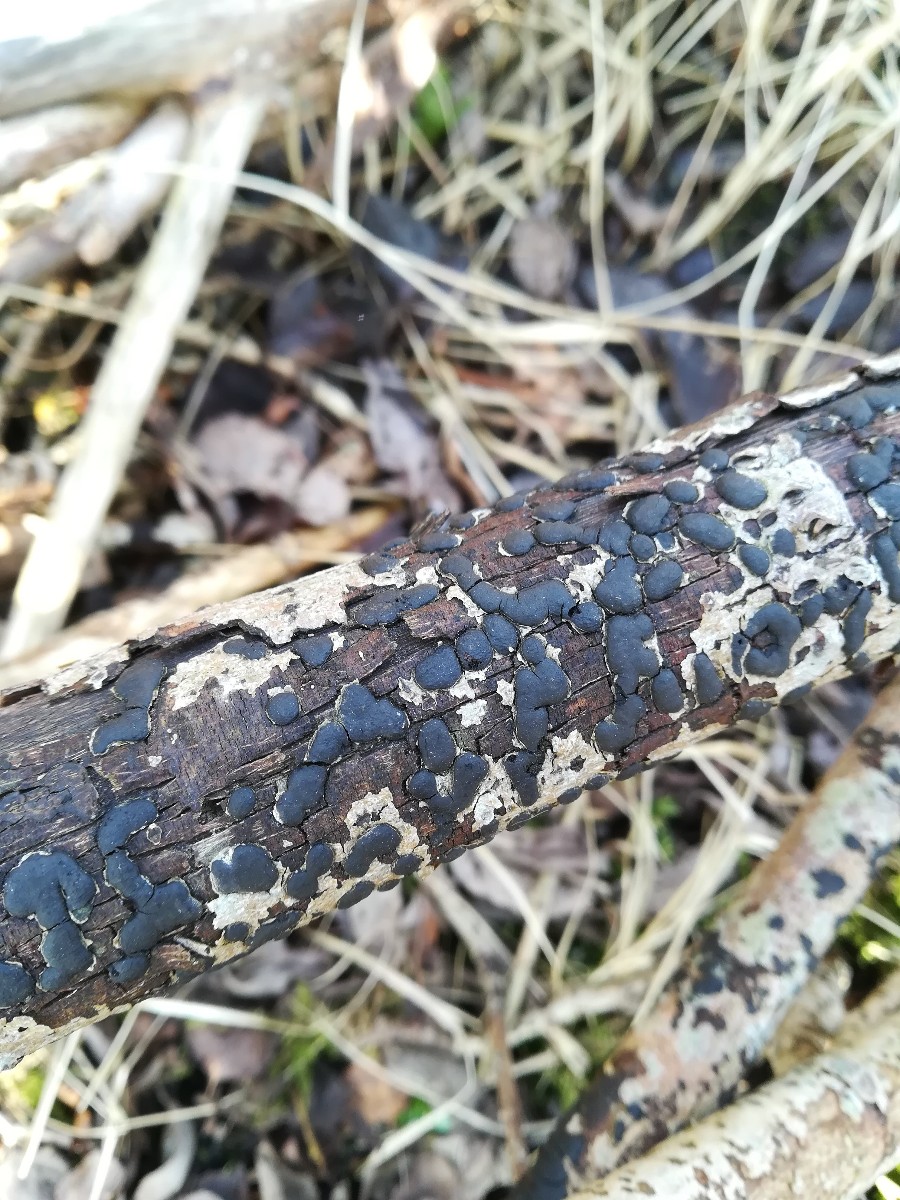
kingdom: Fungi
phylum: Ascomycota
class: Sordariomycetes
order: Xylariales
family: Diatrypaceae
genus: Diatrype
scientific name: Diatrype bullata
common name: pile-kulskorpe
